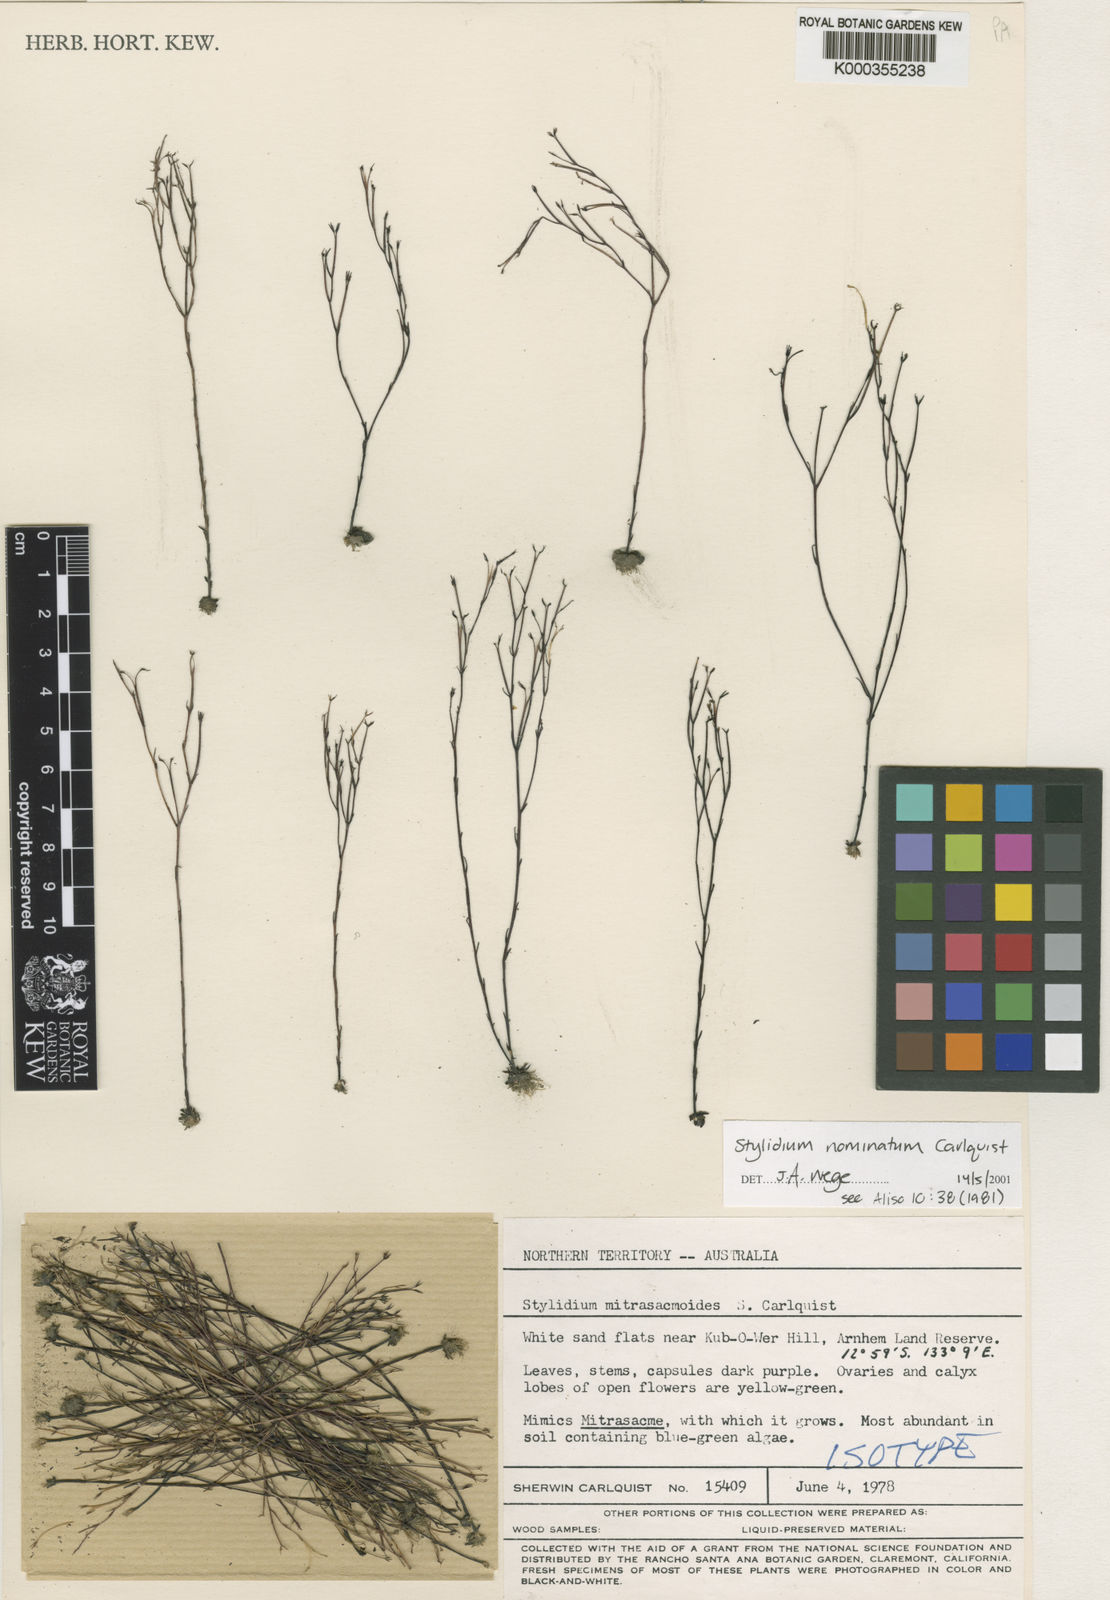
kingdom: Plantae
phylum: Tracheophyta
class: Magnoliopsida
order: Asterales
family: Stylidiaceae
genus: Stylidium
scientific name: Stylidium nominatum
